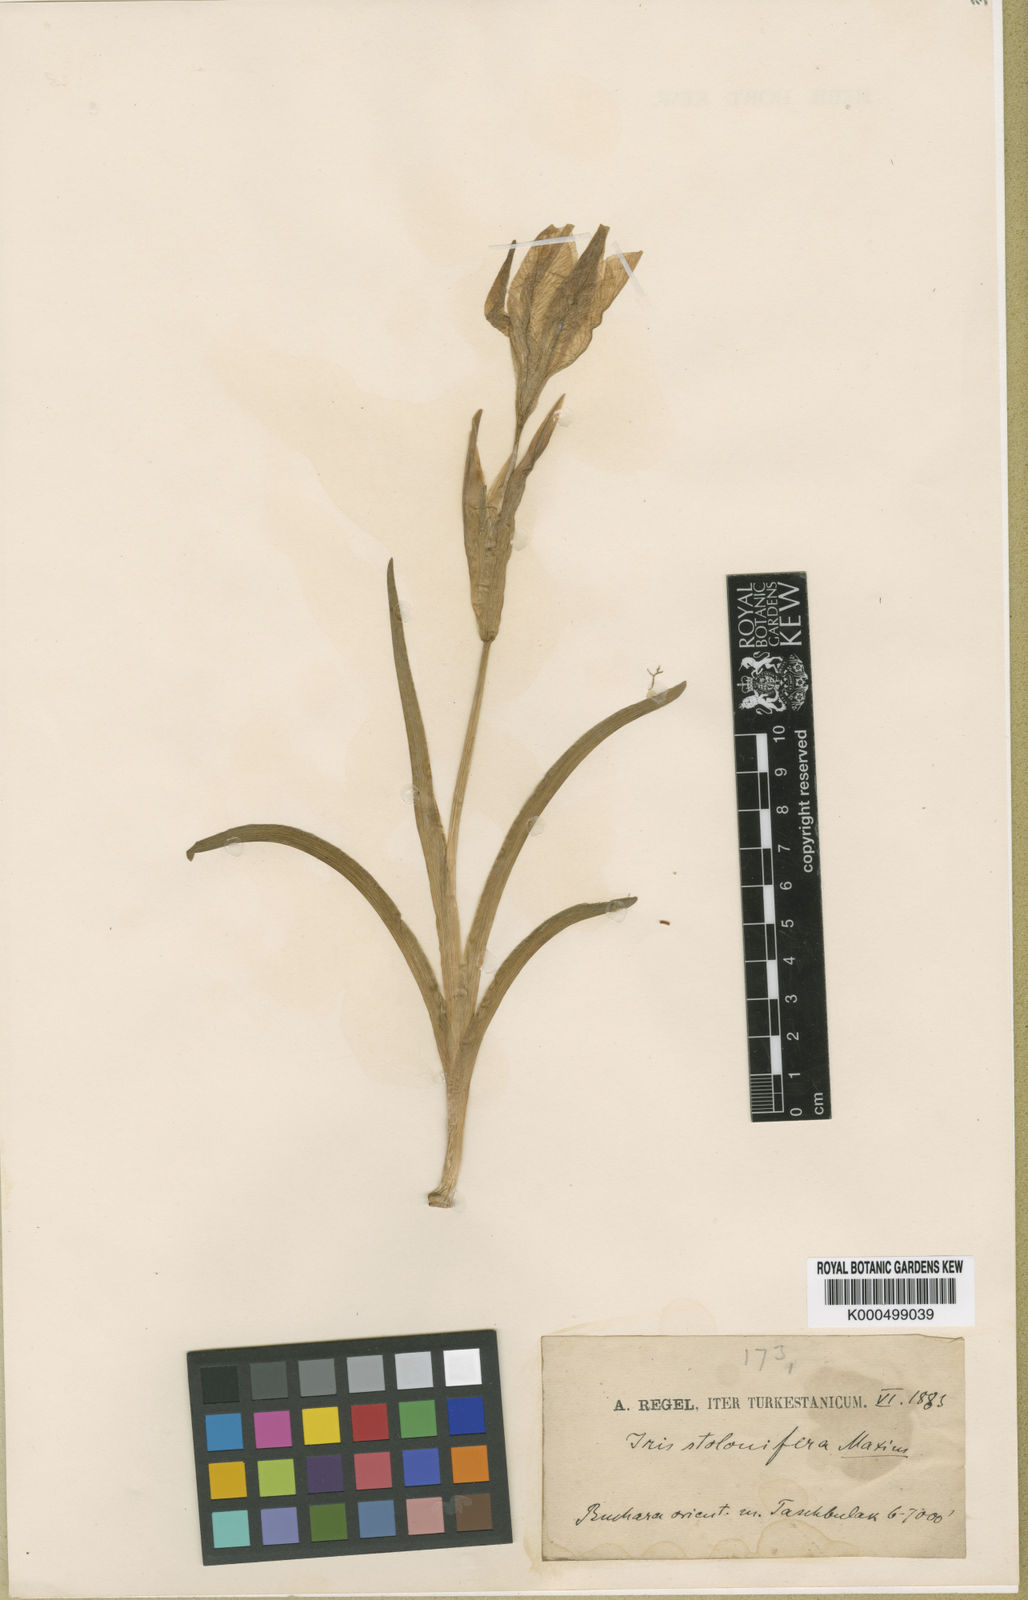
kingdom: Plantae
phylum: Tracheophyta
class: Liliopsida
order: Asparagales
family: Iridaceae
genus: Iris
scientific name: Iris stolonifera
